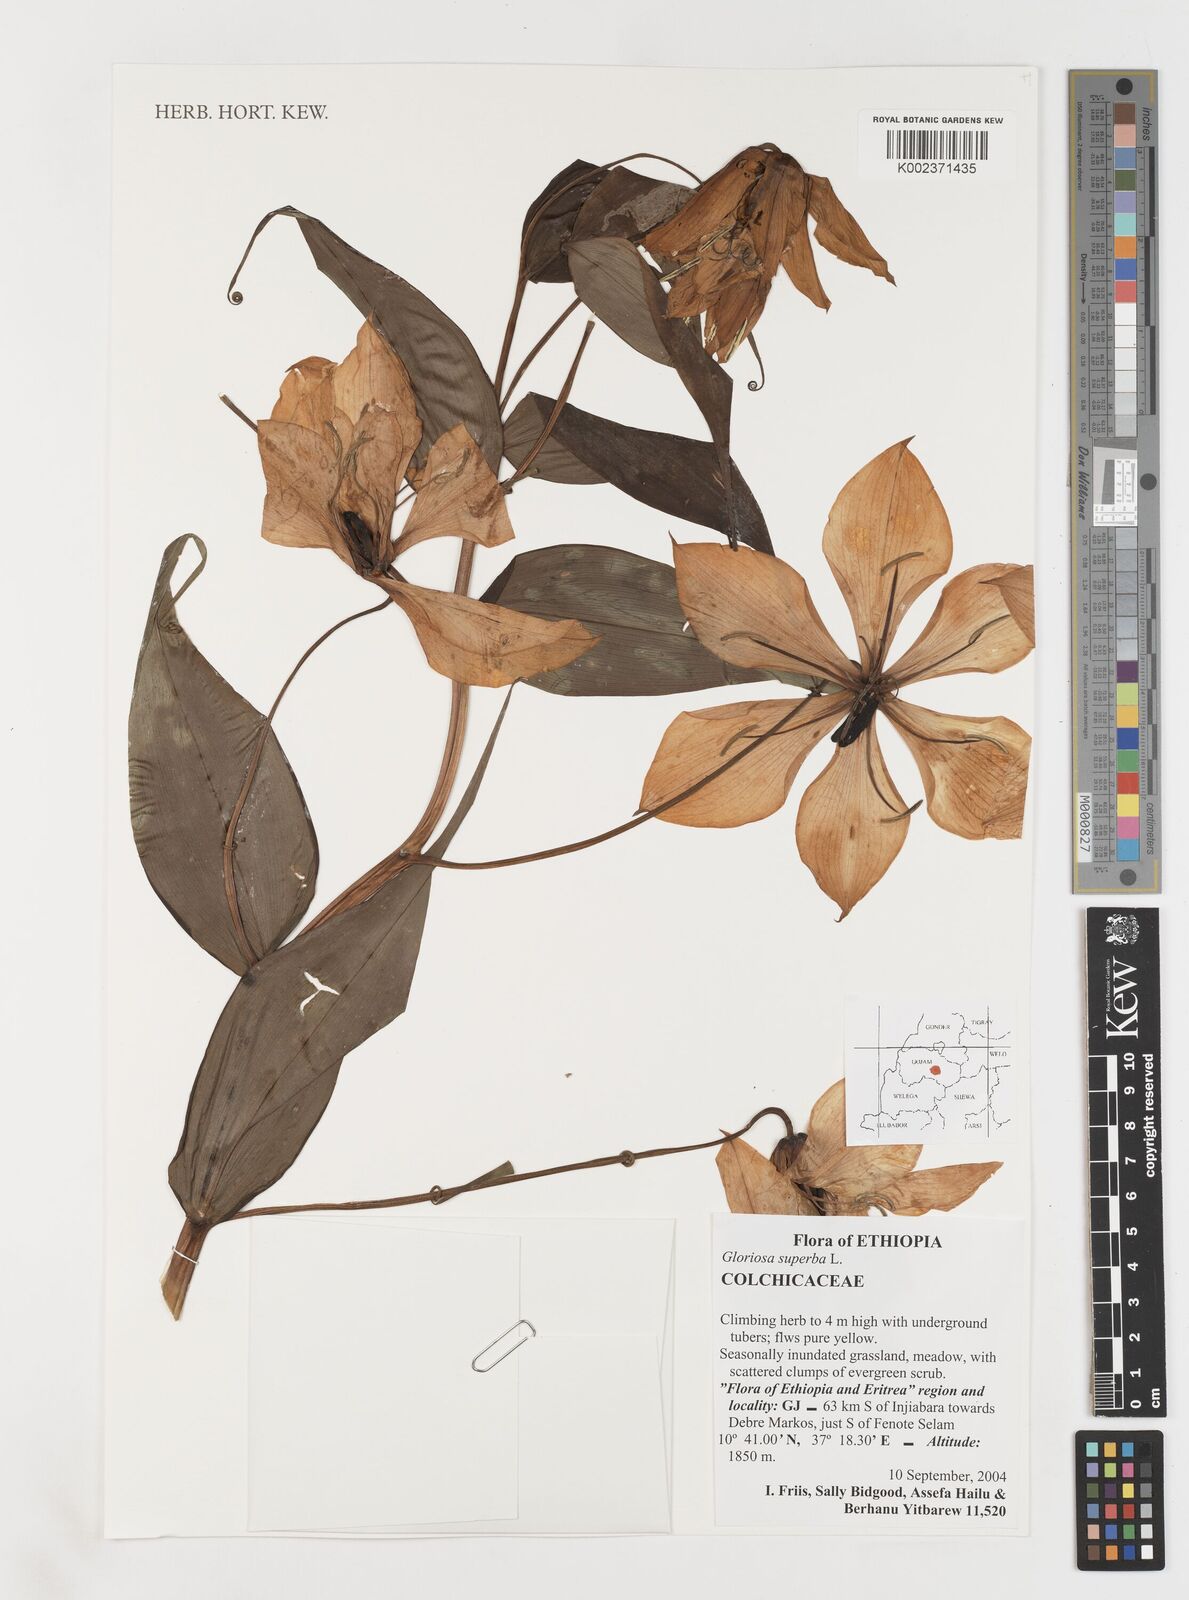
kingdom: Plantae
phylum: Tracheophyta
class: Liliopsida
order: Liliales
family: Colchicaceae
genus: Gloriosa
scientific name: Gloriosa simplex
